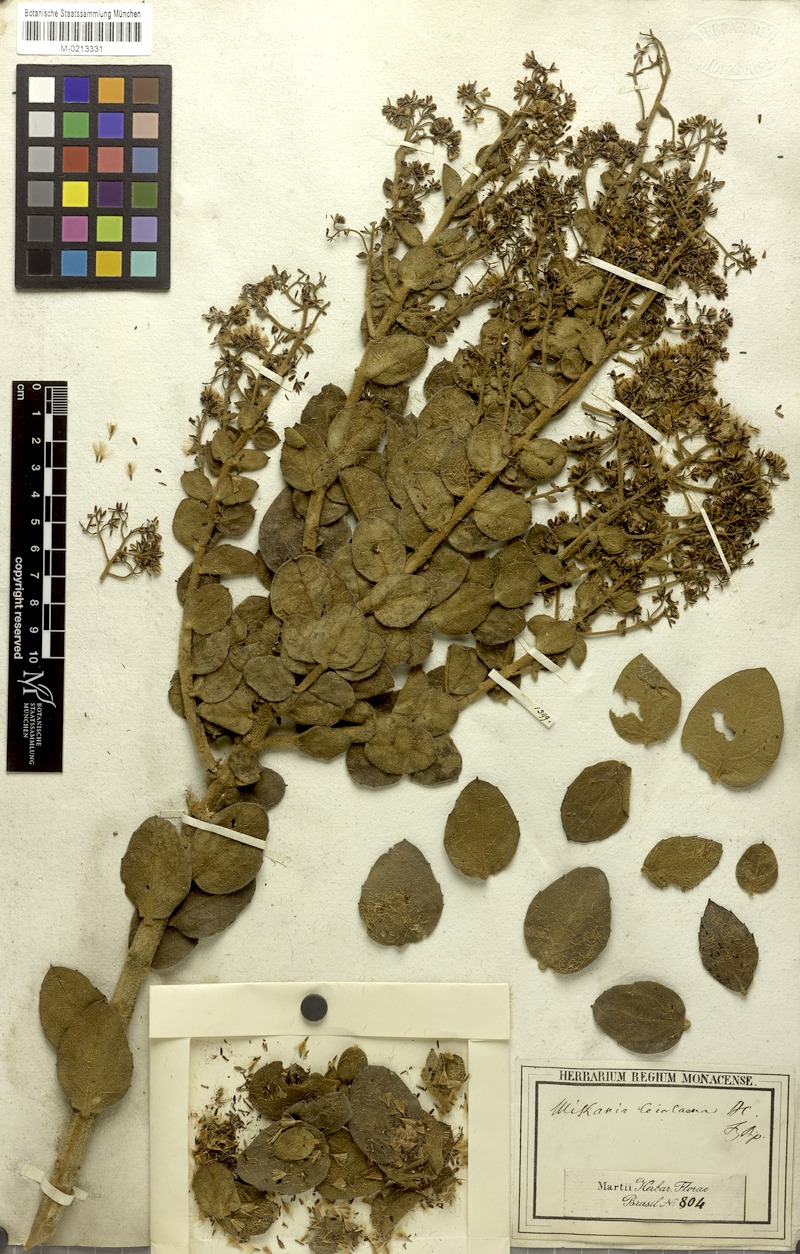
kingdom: Plantae
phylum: Tracheophyta
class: Magnoliopsida
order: Asterales
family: Asteraceae
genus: Mikania
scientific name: Mikania leiolaena
